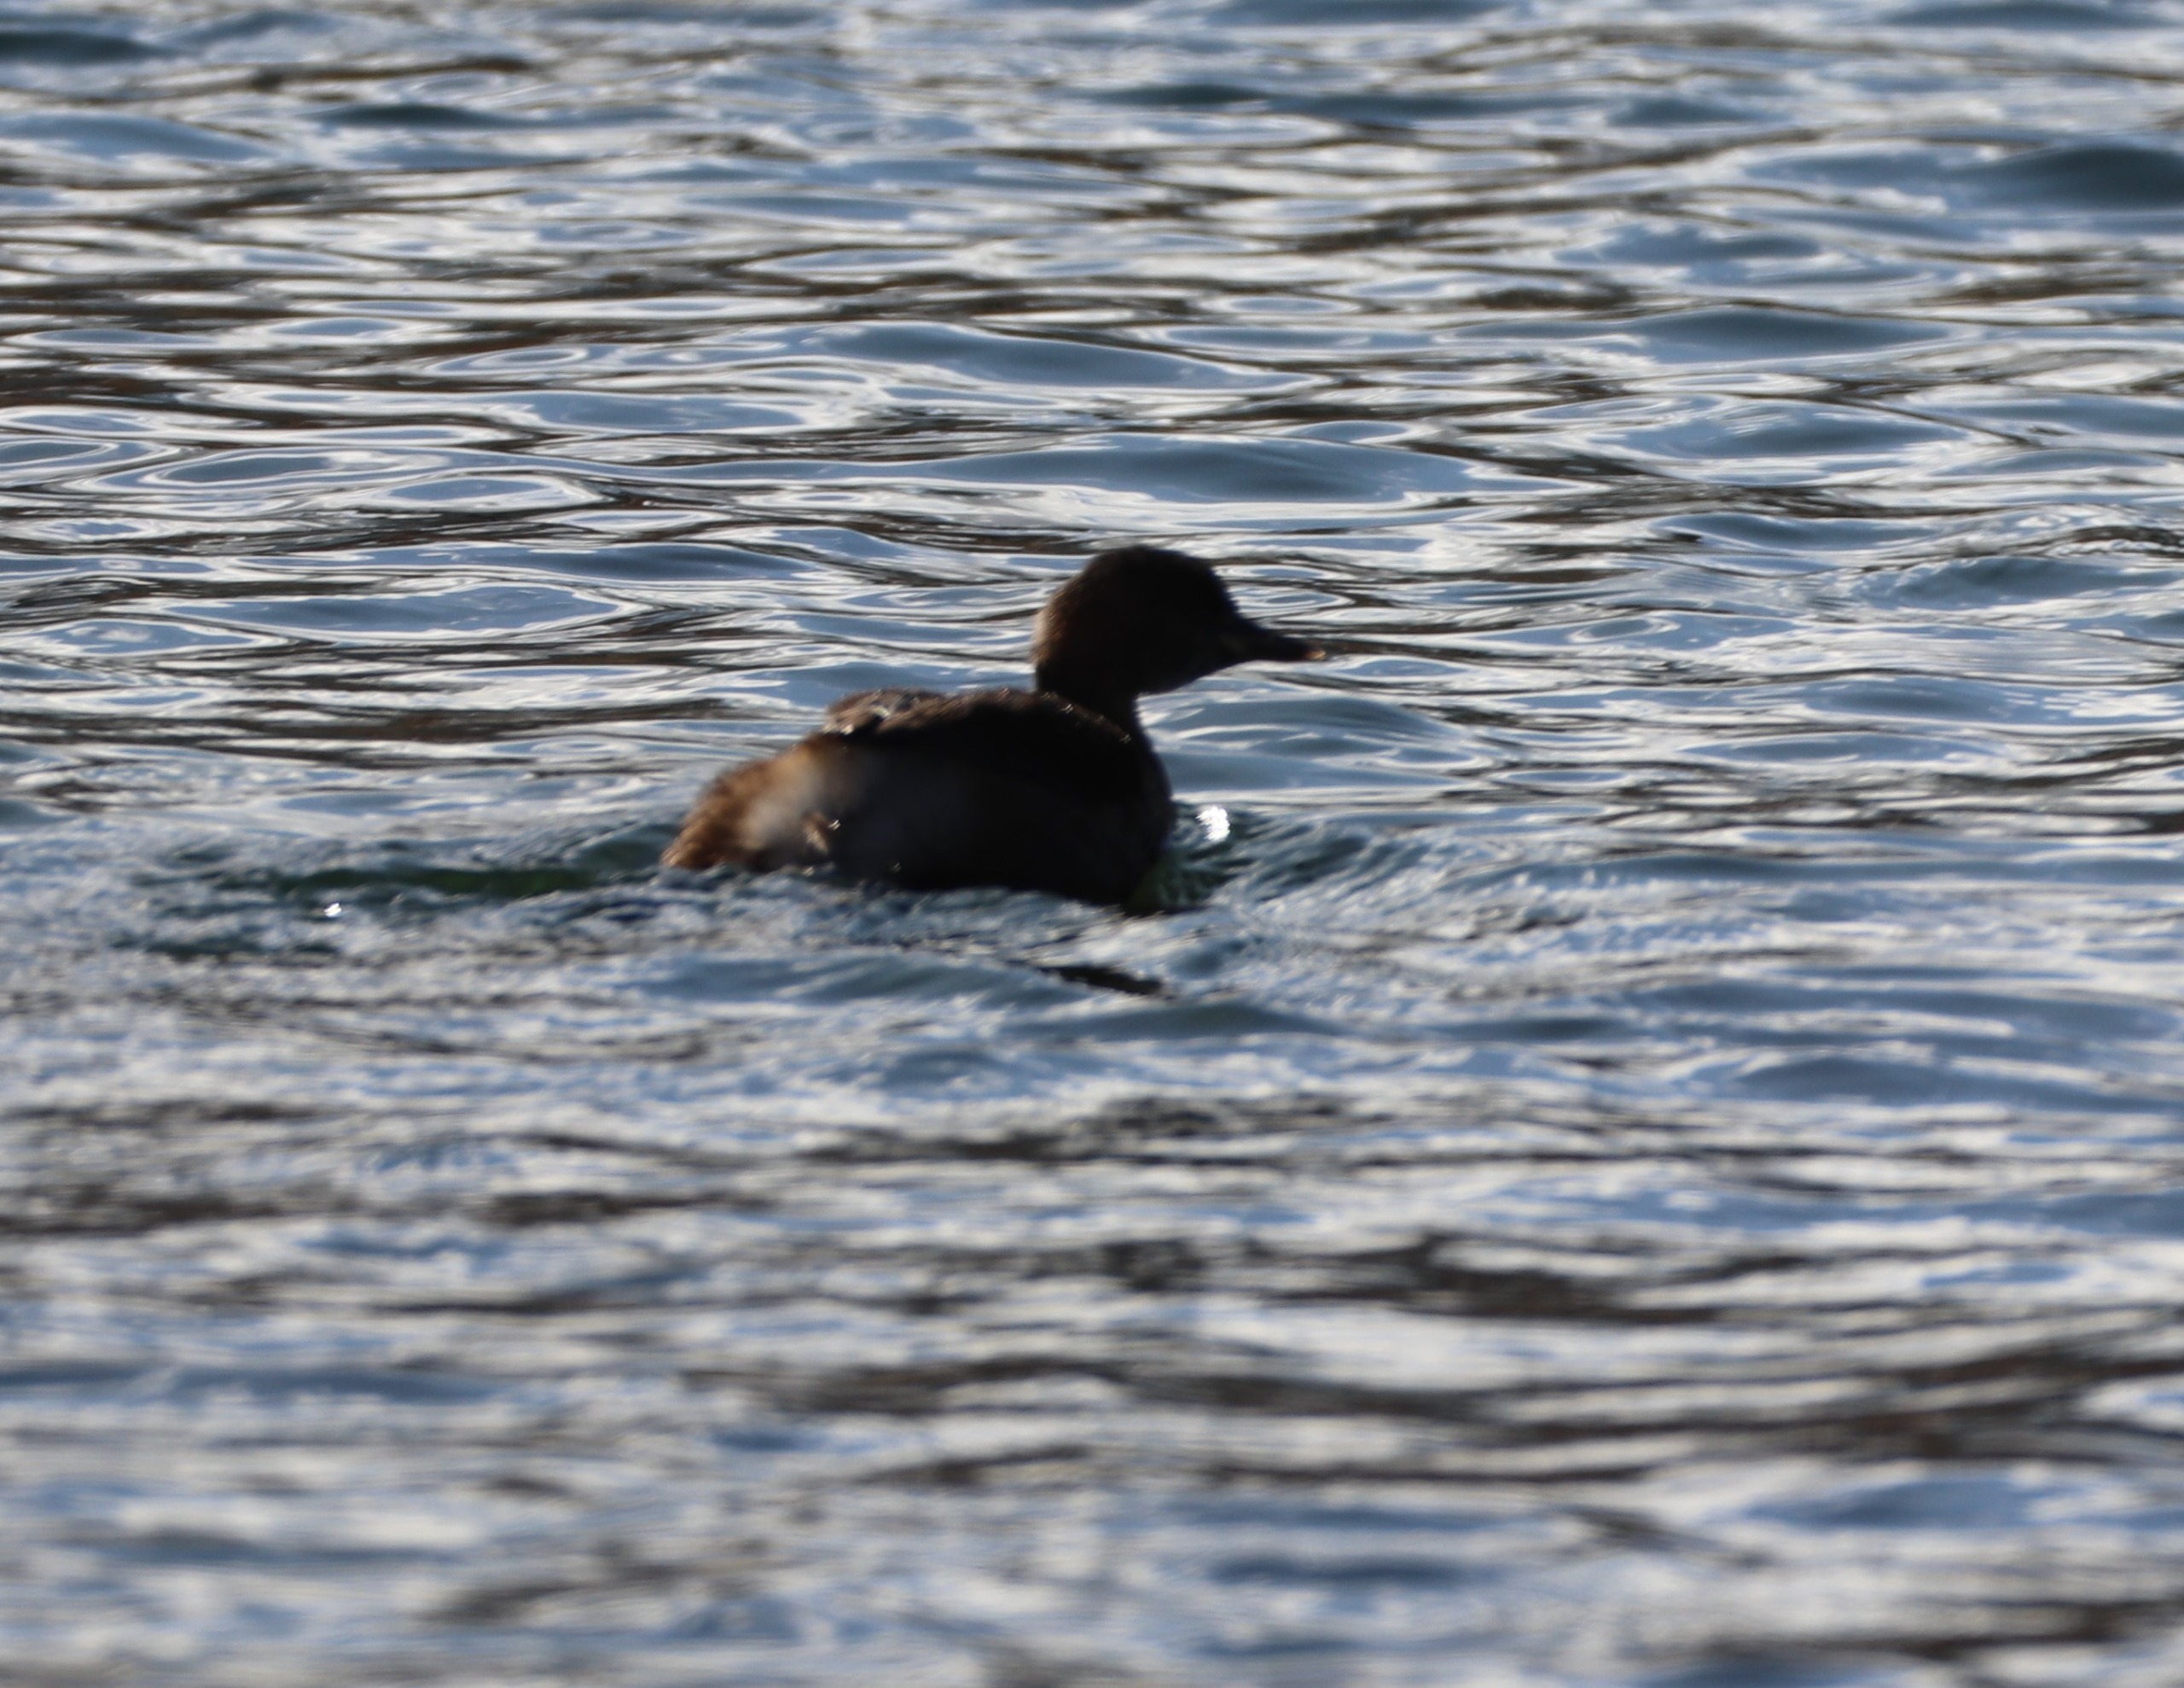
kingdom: Animalia
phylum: Chordata
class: Aves
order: Podicipediformes
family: Podicipedidae
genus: Tachybaptus
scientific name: Tachybaptus ruficollis
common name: Lille lappedykker
